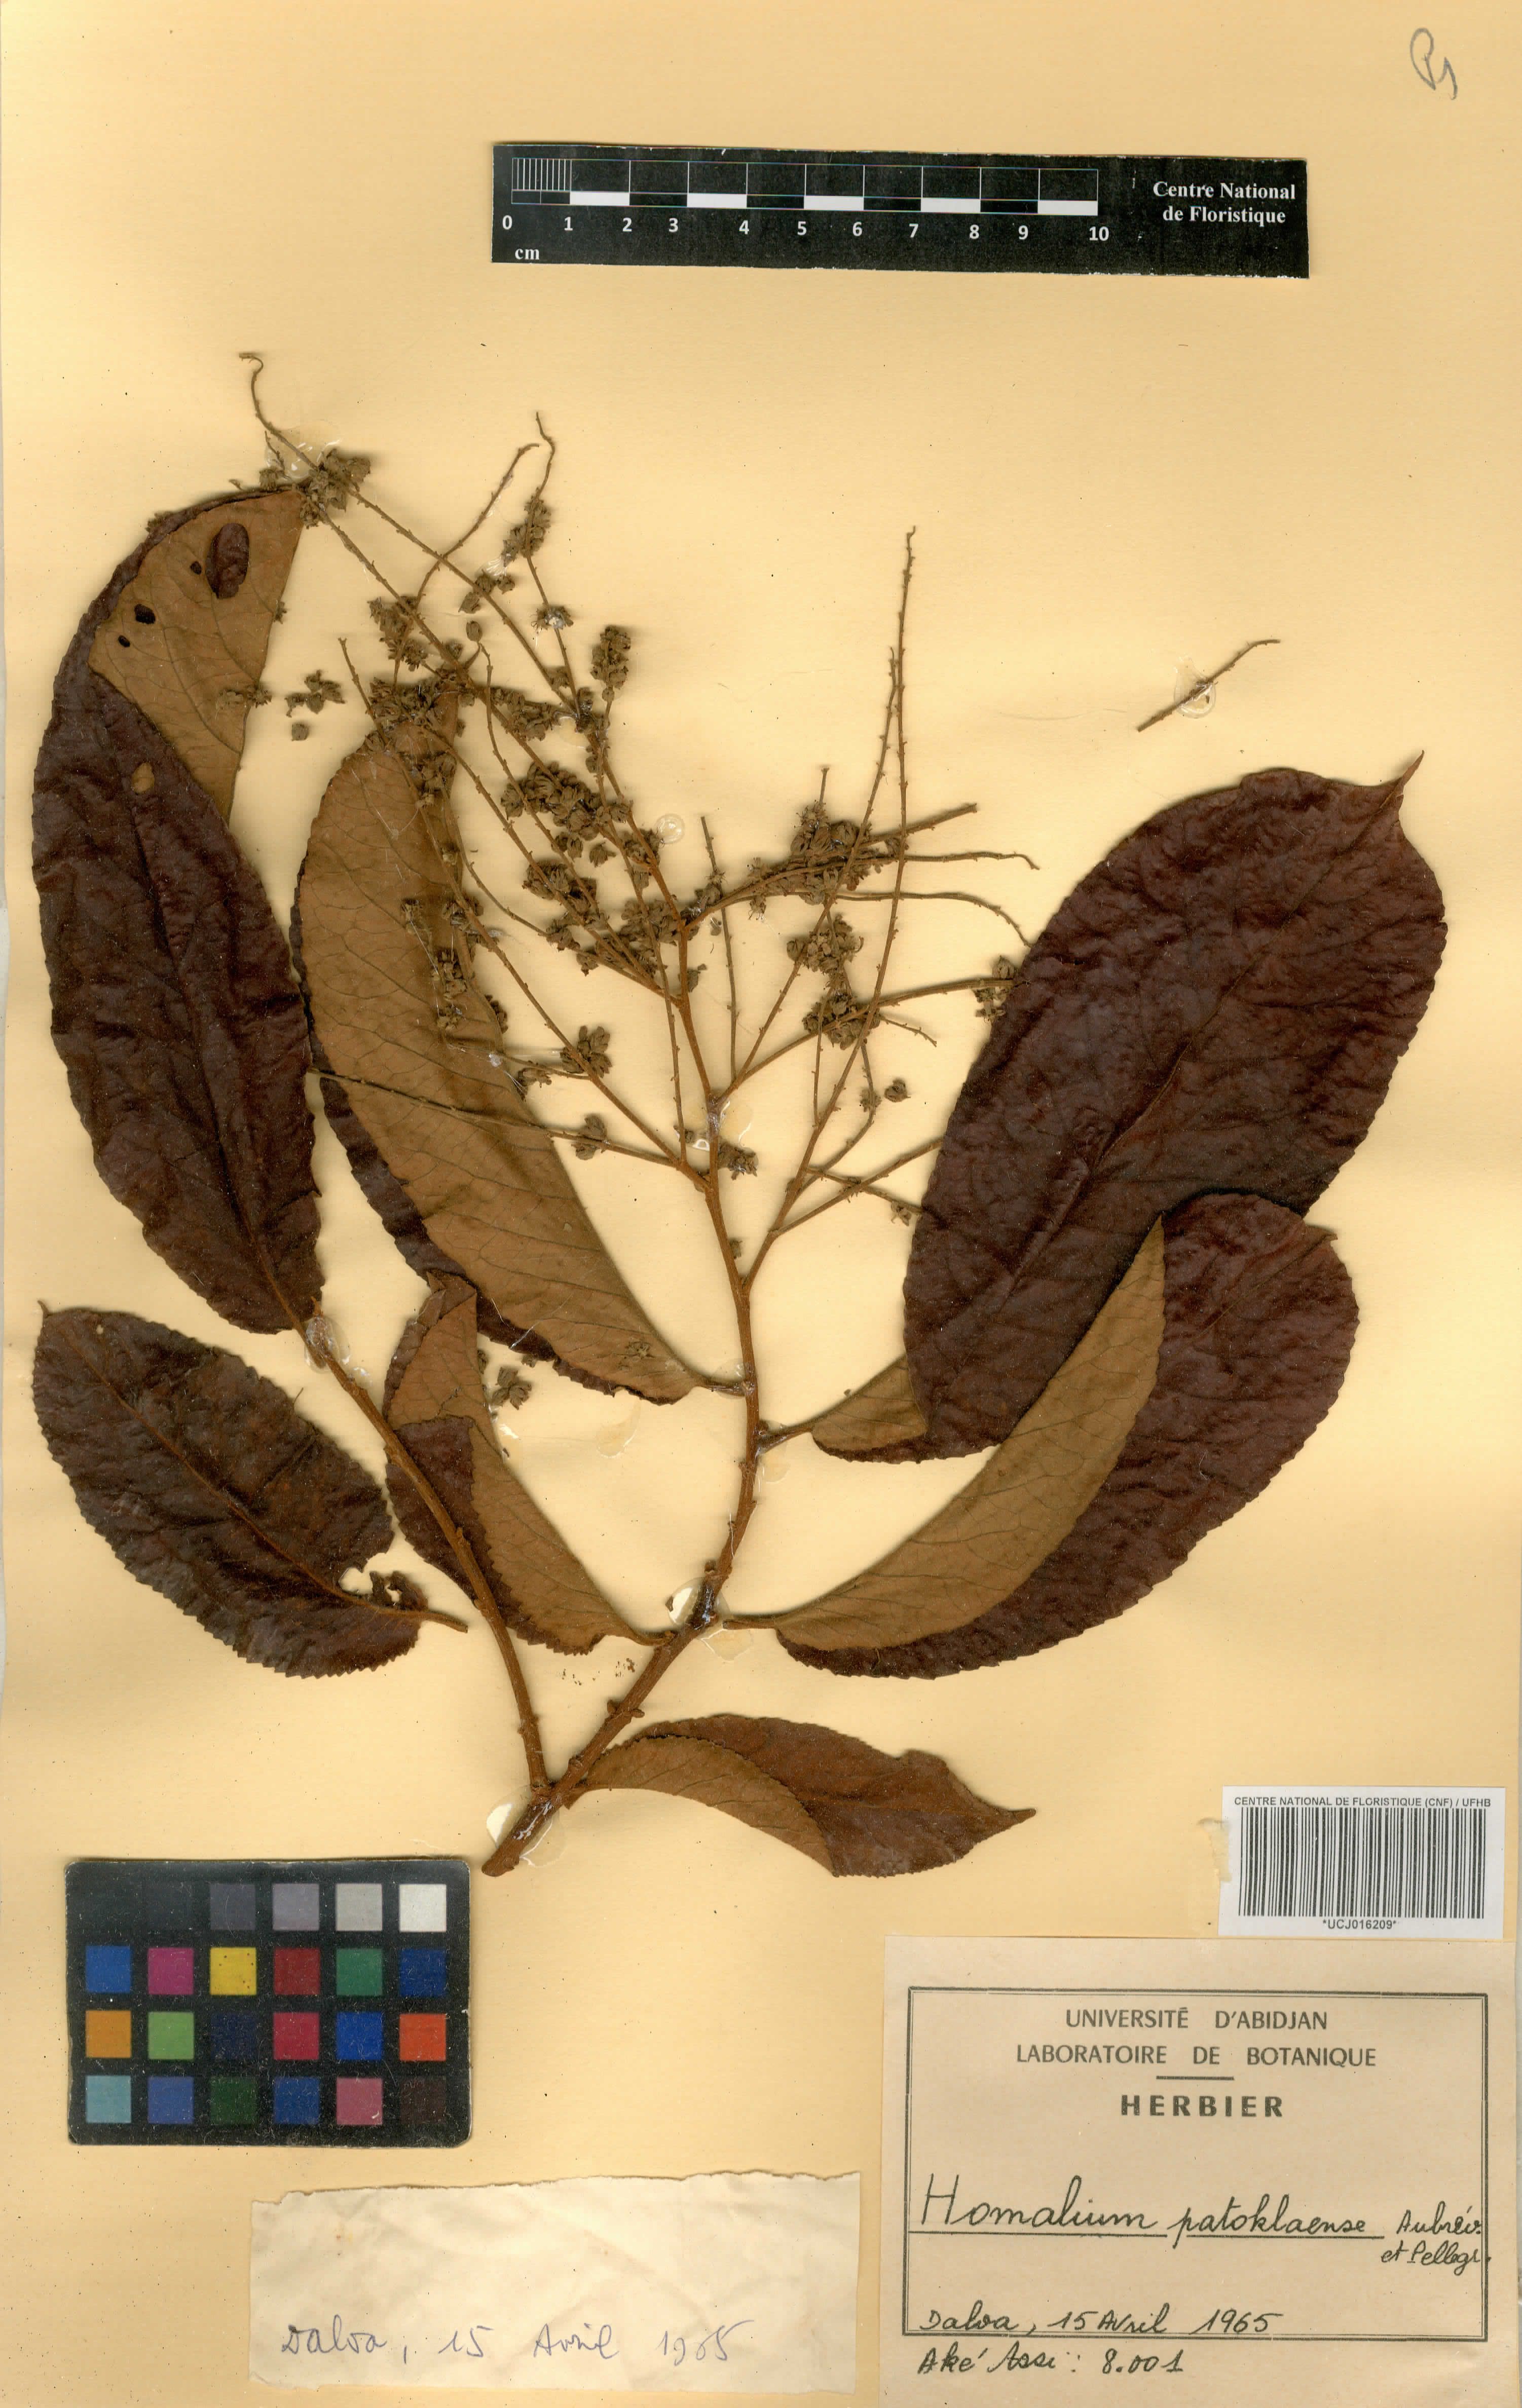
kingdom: Plantae
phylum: Tracheophyta
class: Magnoliopsida
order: Malpighiales
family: Salicaceae
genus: Homalium
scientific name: Homalium lastoursvillense
